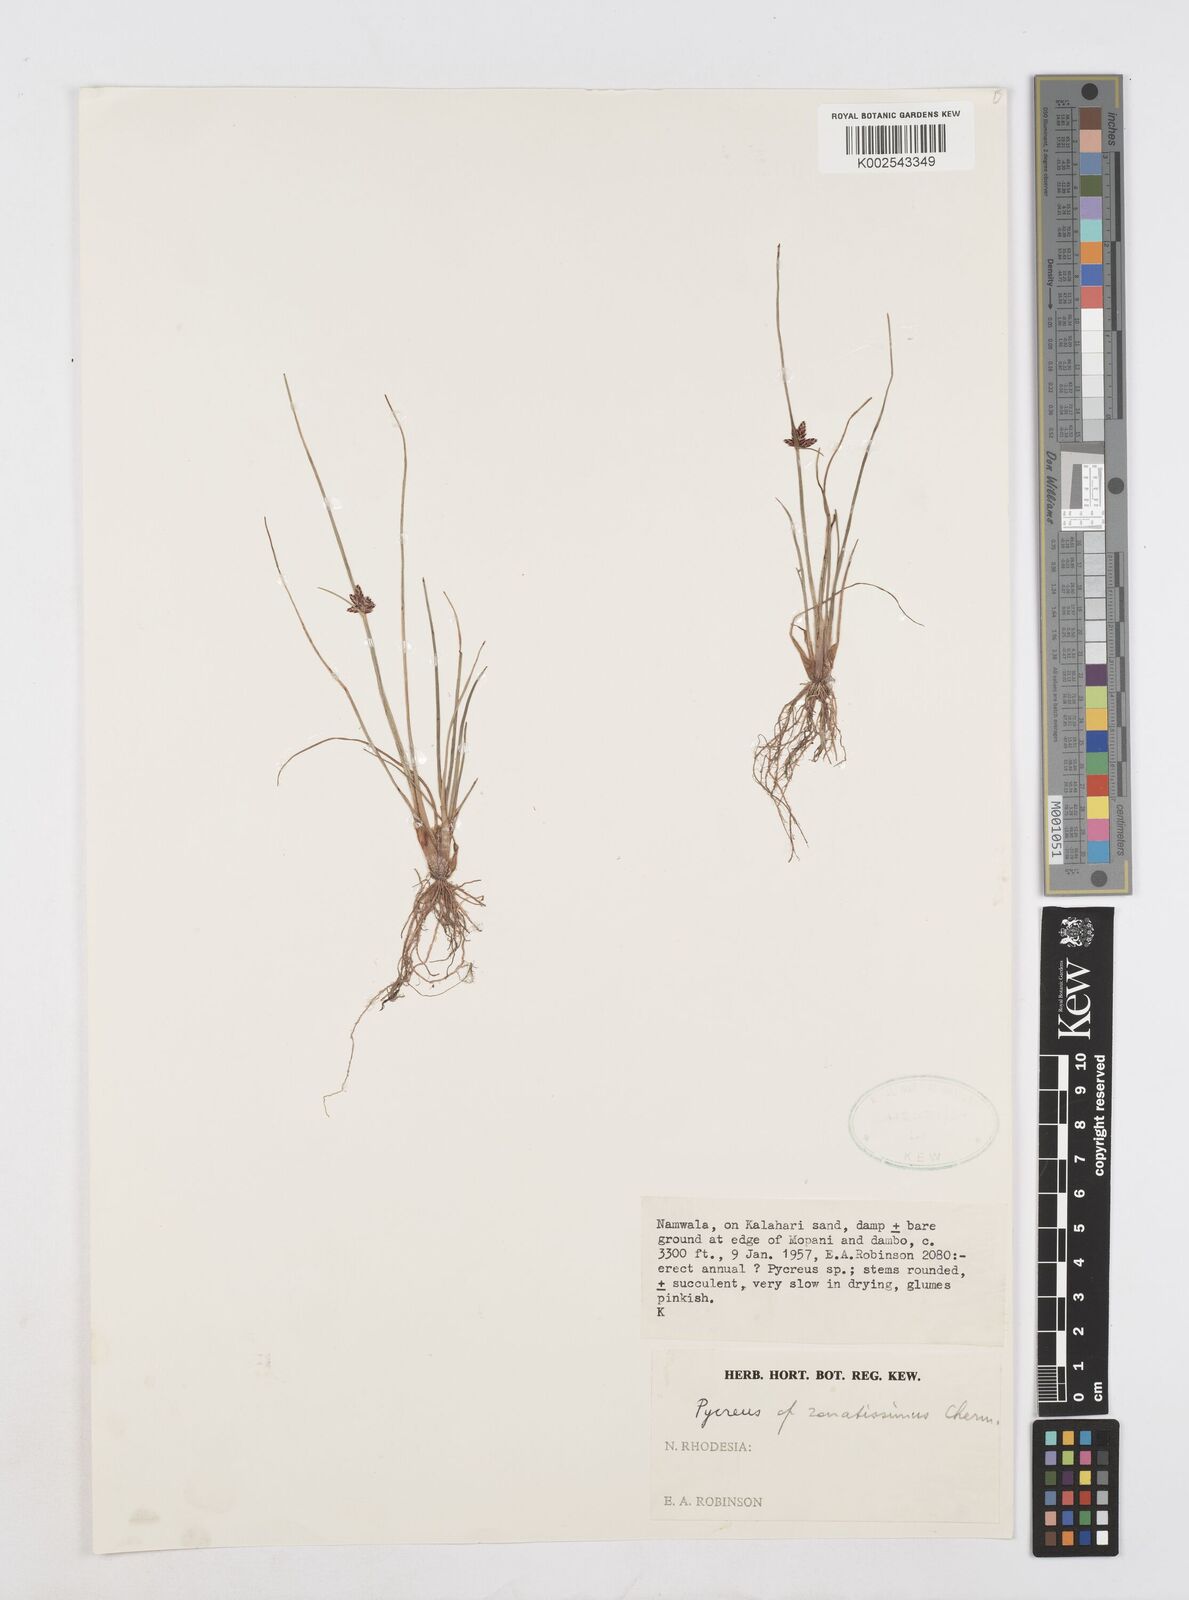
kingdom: Plantae
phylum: Tracheophyta
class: Liliopsida
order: Poales
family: Cyperaceae
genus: Cyperus
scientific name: Cyperus
